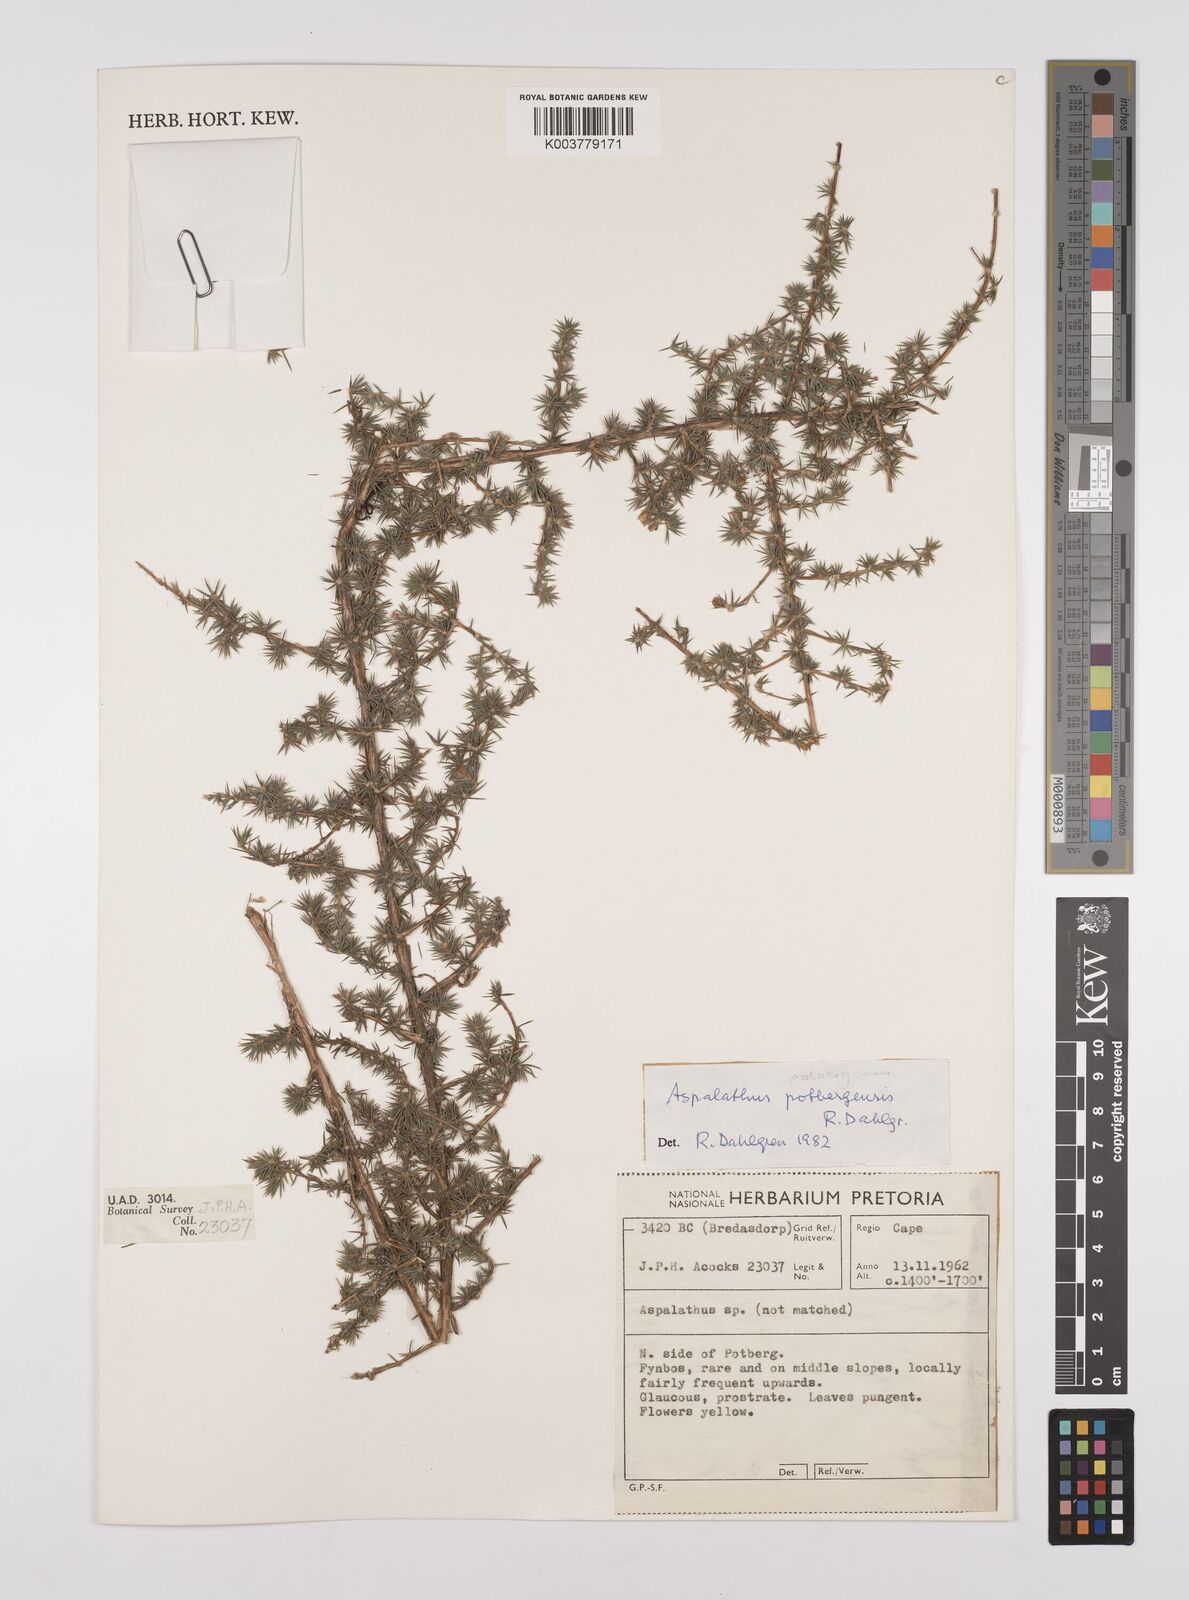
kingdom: Plantae
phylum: Tracheophyta
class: Magnoliopsida
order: Fabales
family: Fabaceae
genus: Aspalathus
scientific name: Aspalathus potbergensis
